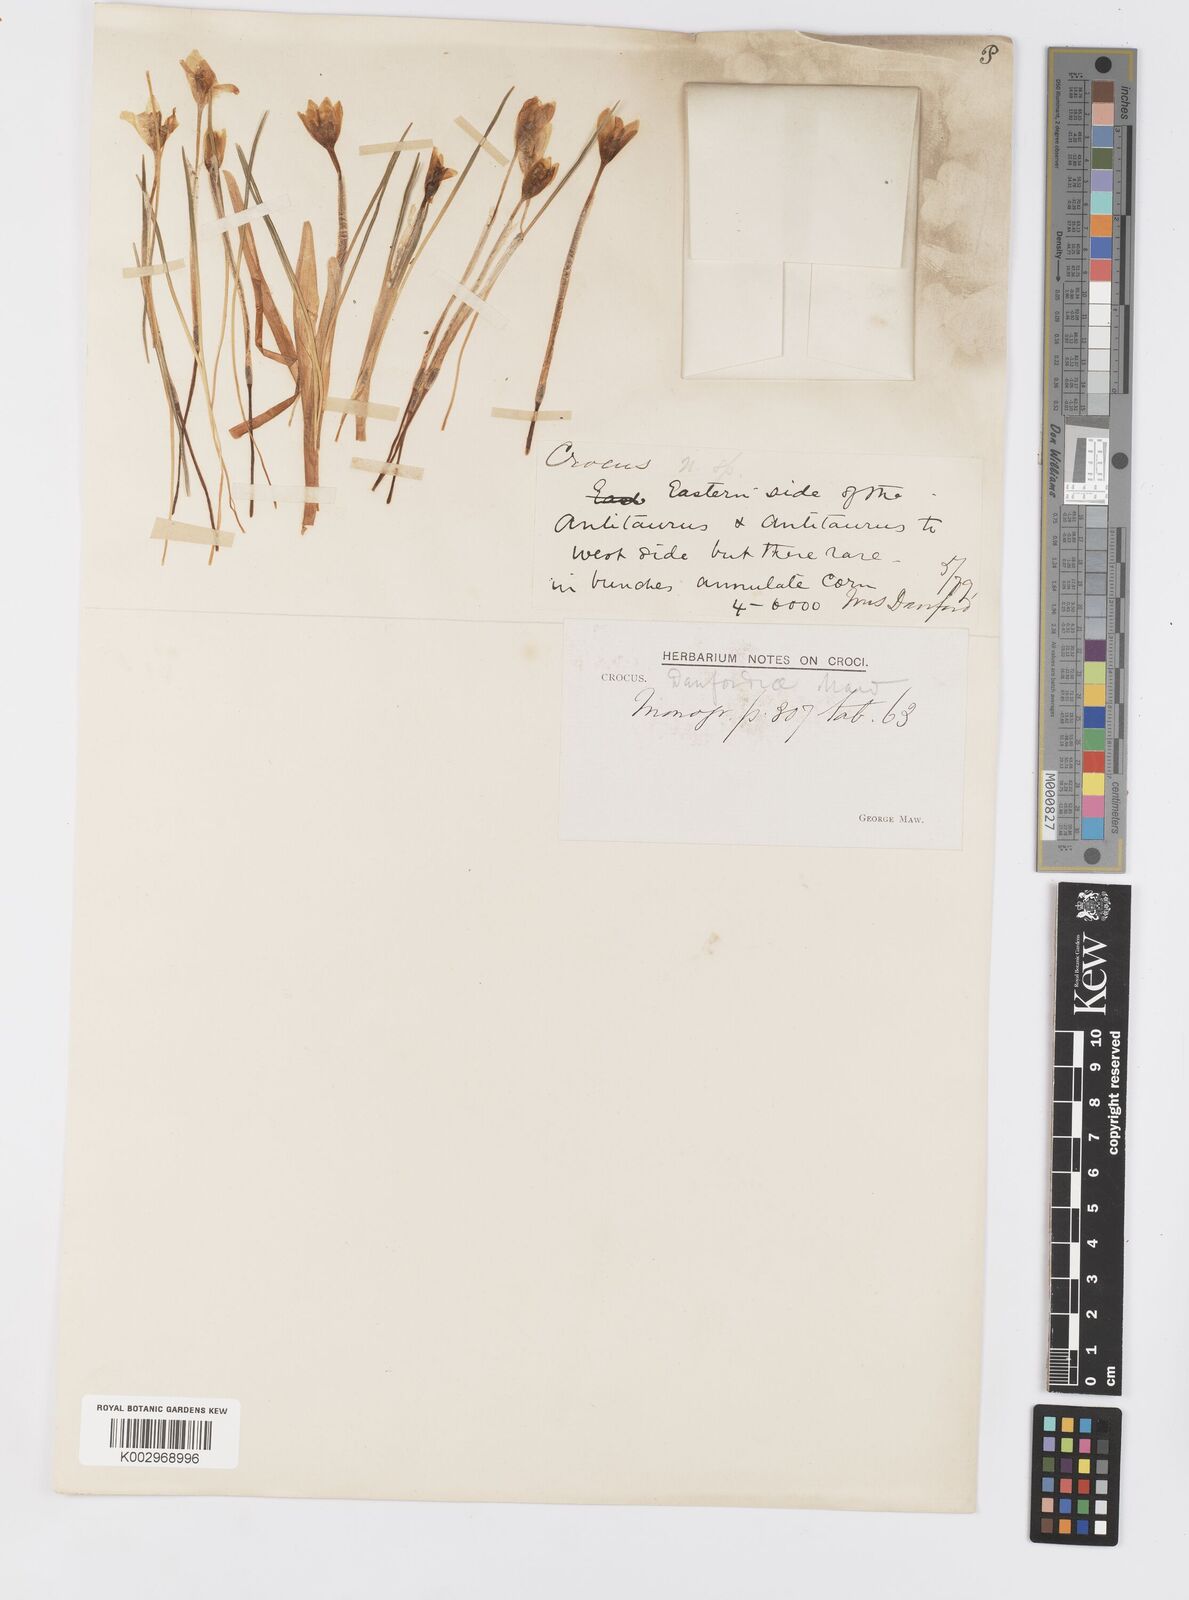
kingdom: Plantae
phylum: Tracheophyta
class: Liliopsida
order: Asparagales
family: Iridaceae
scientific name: Iridaceae
